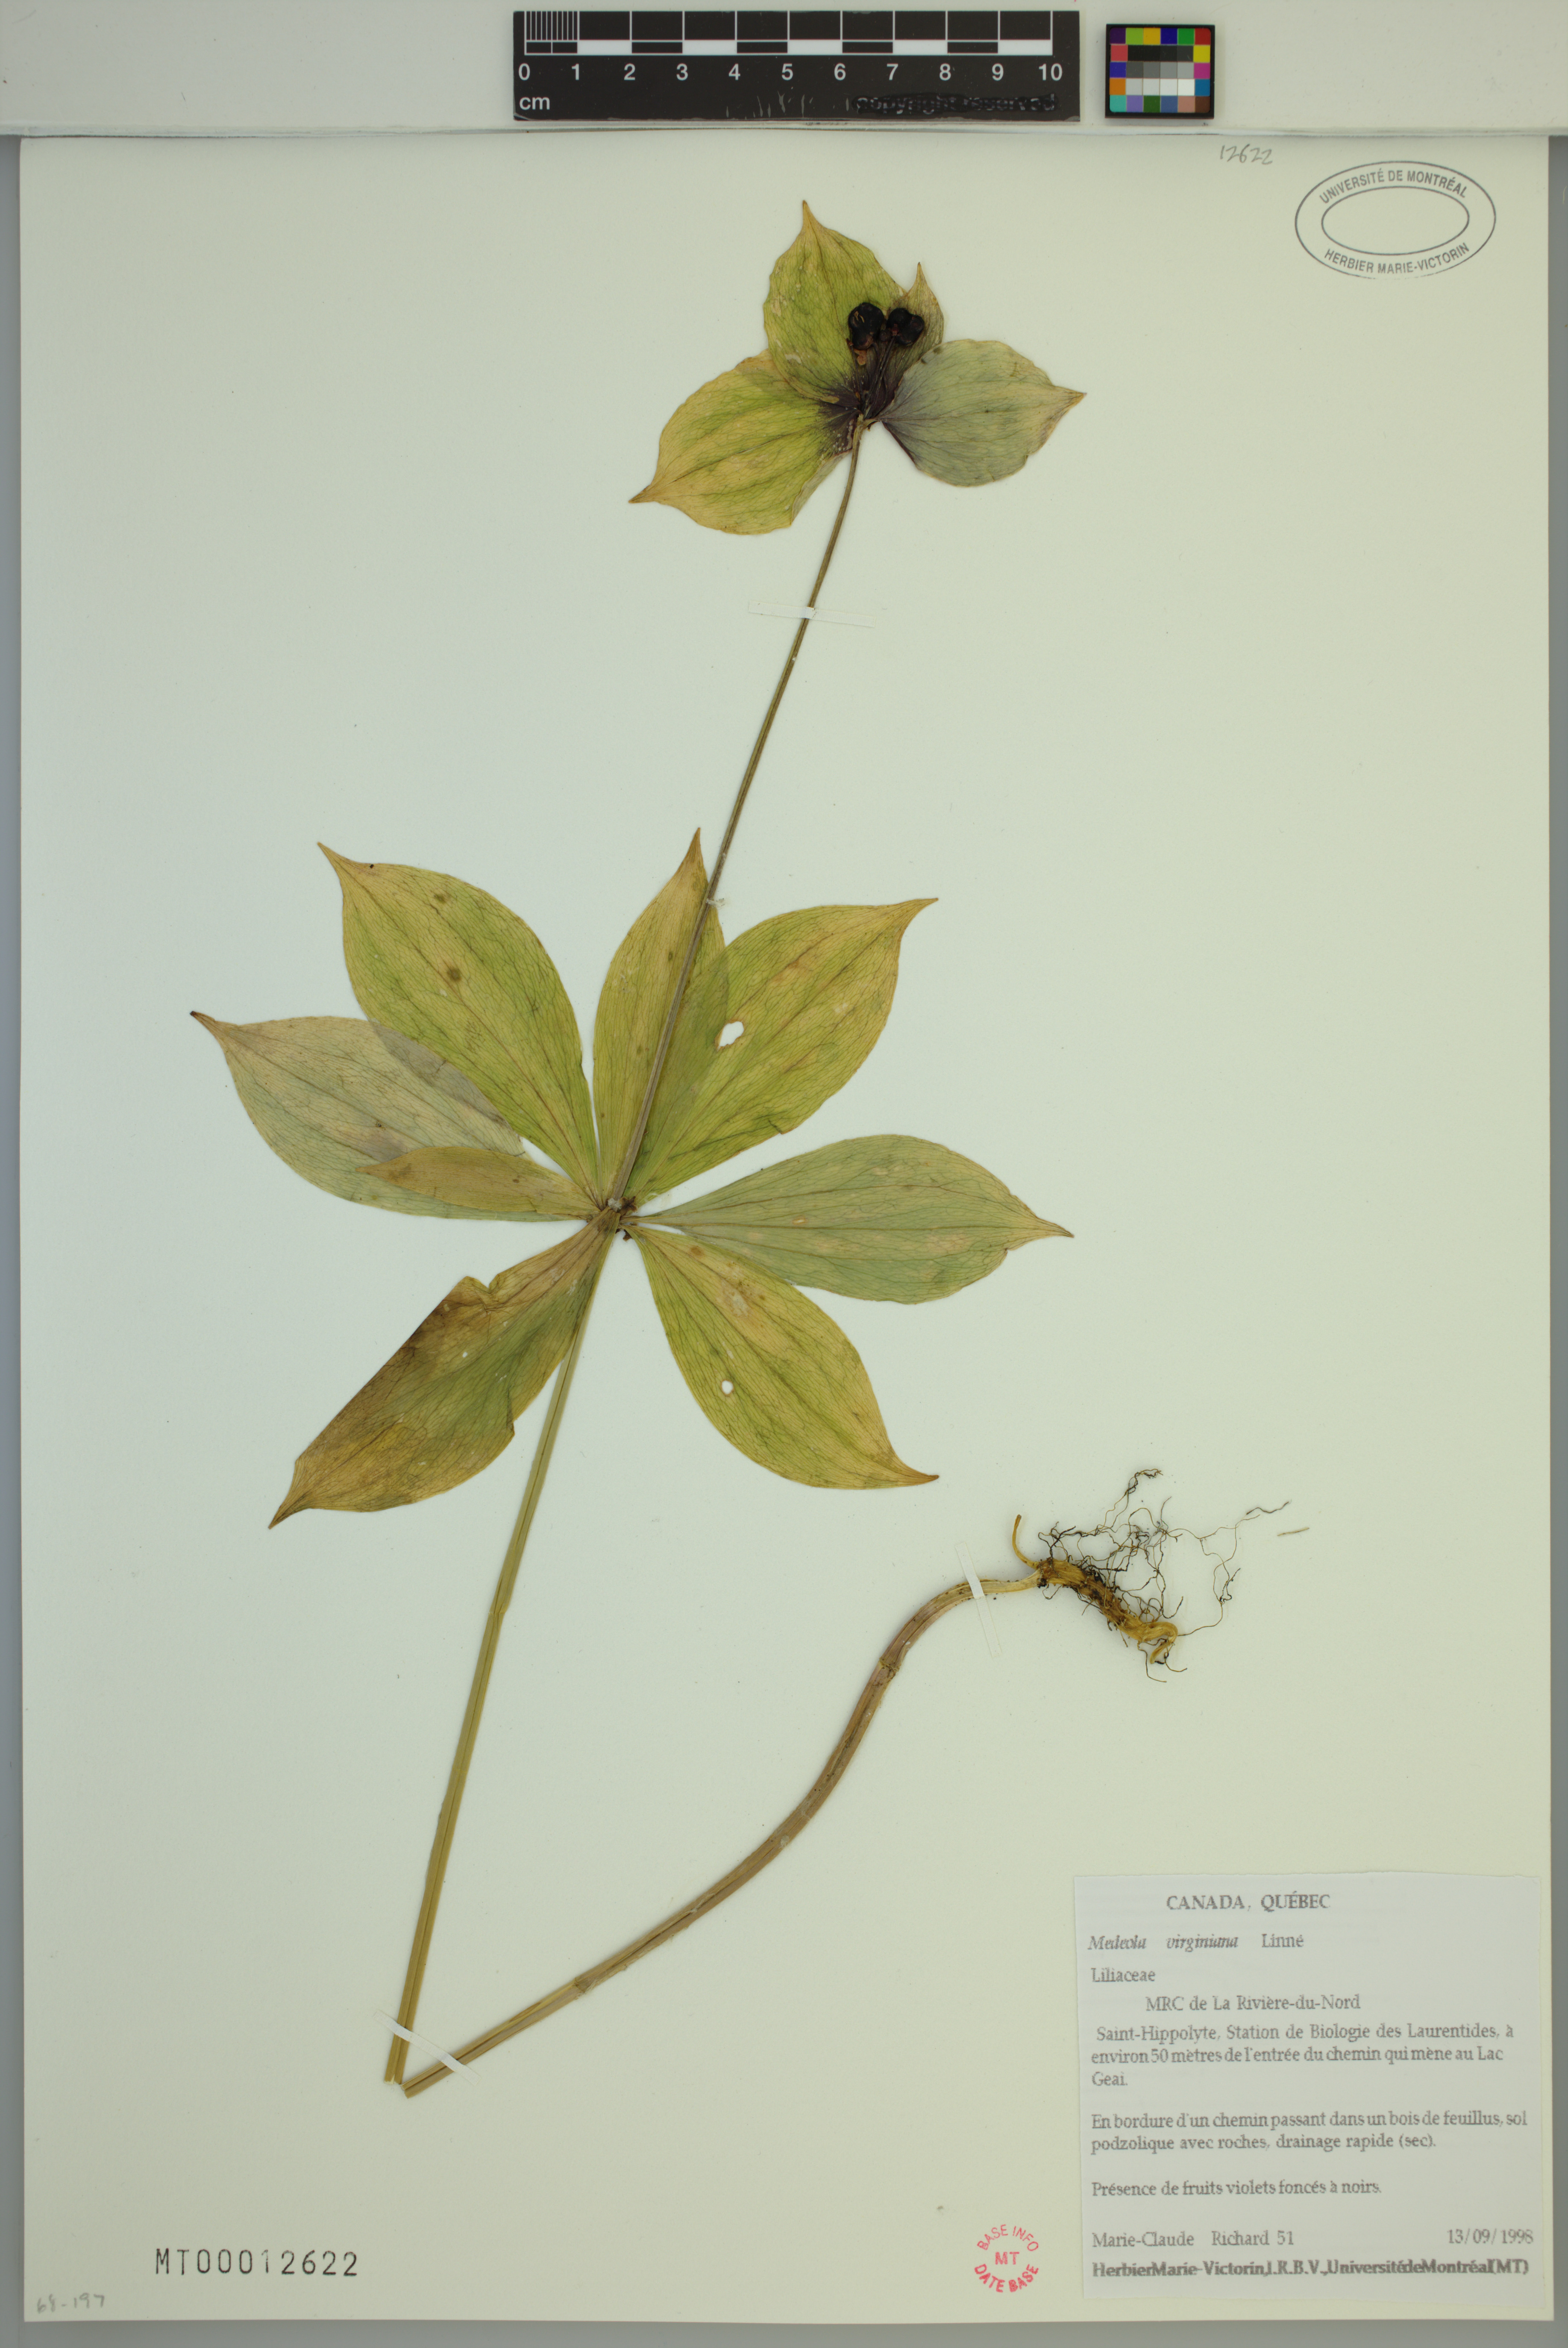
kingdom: Plantae
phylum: Tracheophyta
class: Liliopsida
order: Liliales
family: Liliaceae
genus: Medeola
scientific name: Medeola virginiana
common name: Indian cucumber-root
